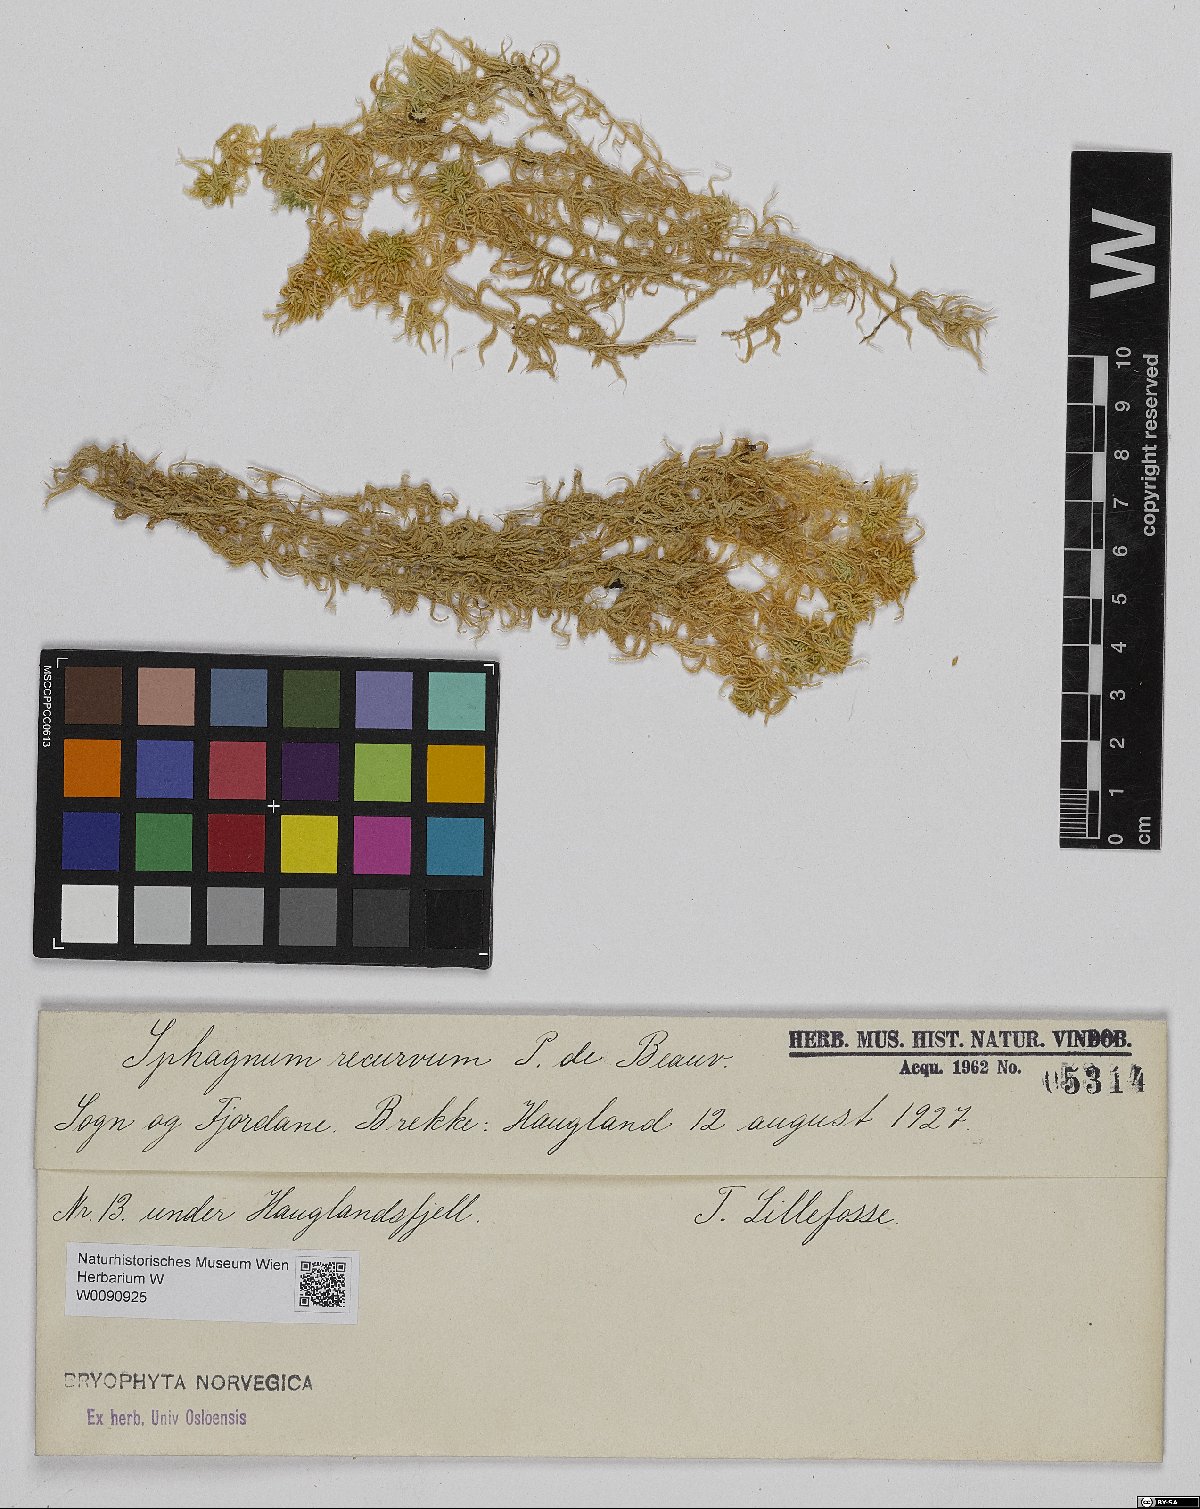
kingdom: Plantae
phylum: Bryophyta
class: Sphagnopsida
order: Sphagnales
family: Sphagnaceae
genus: Sphagnum
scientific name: Sphagnum recurvum
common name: Recurved peatmoss
